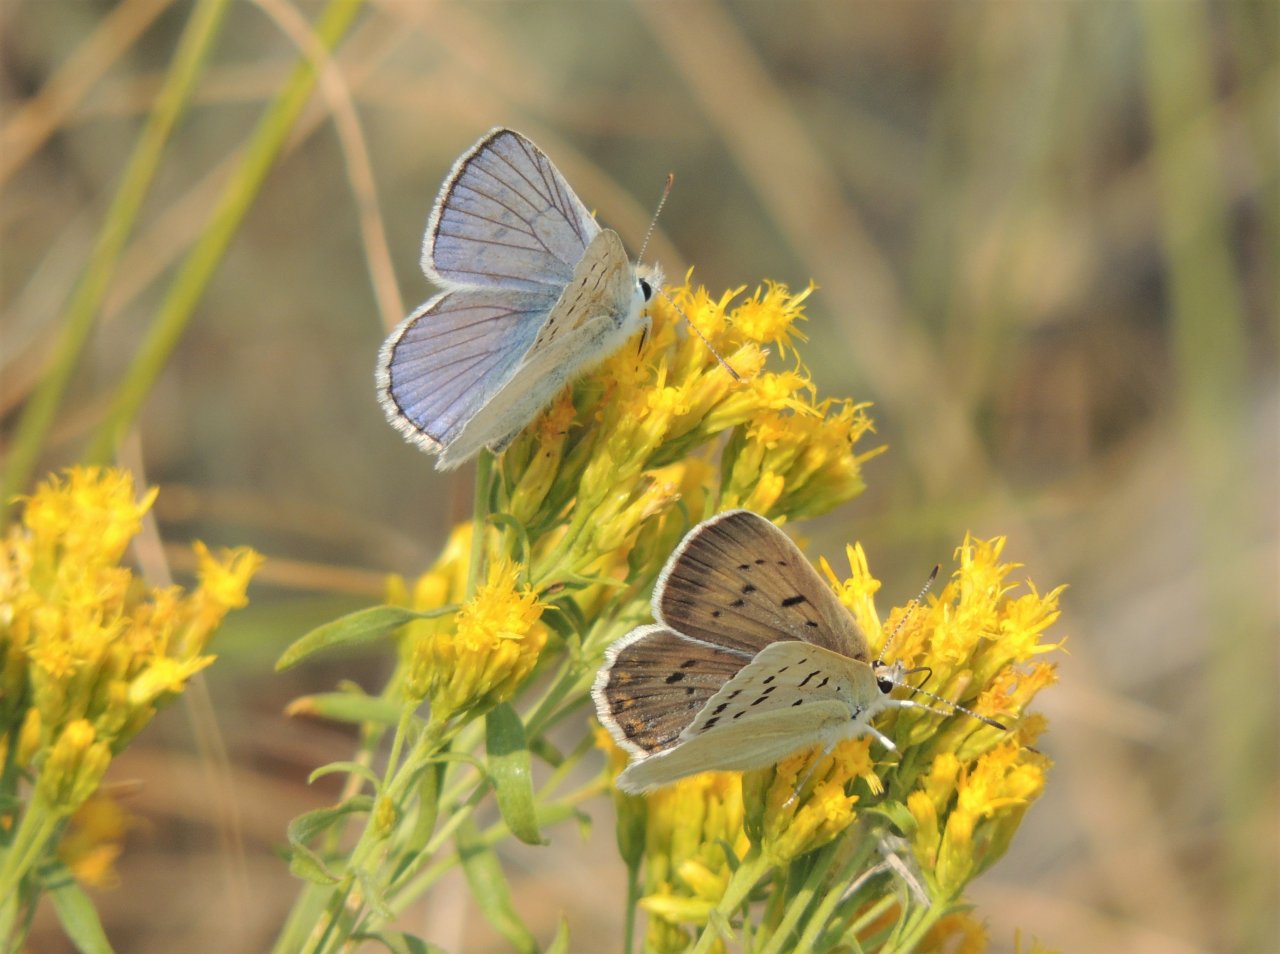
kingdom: Animalia
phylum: Arthropoda
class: Insecta
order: Lepidoptera
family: Lycaenidae
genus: Lycaena
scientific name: Lycaena heteronea
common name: Blue Copper
